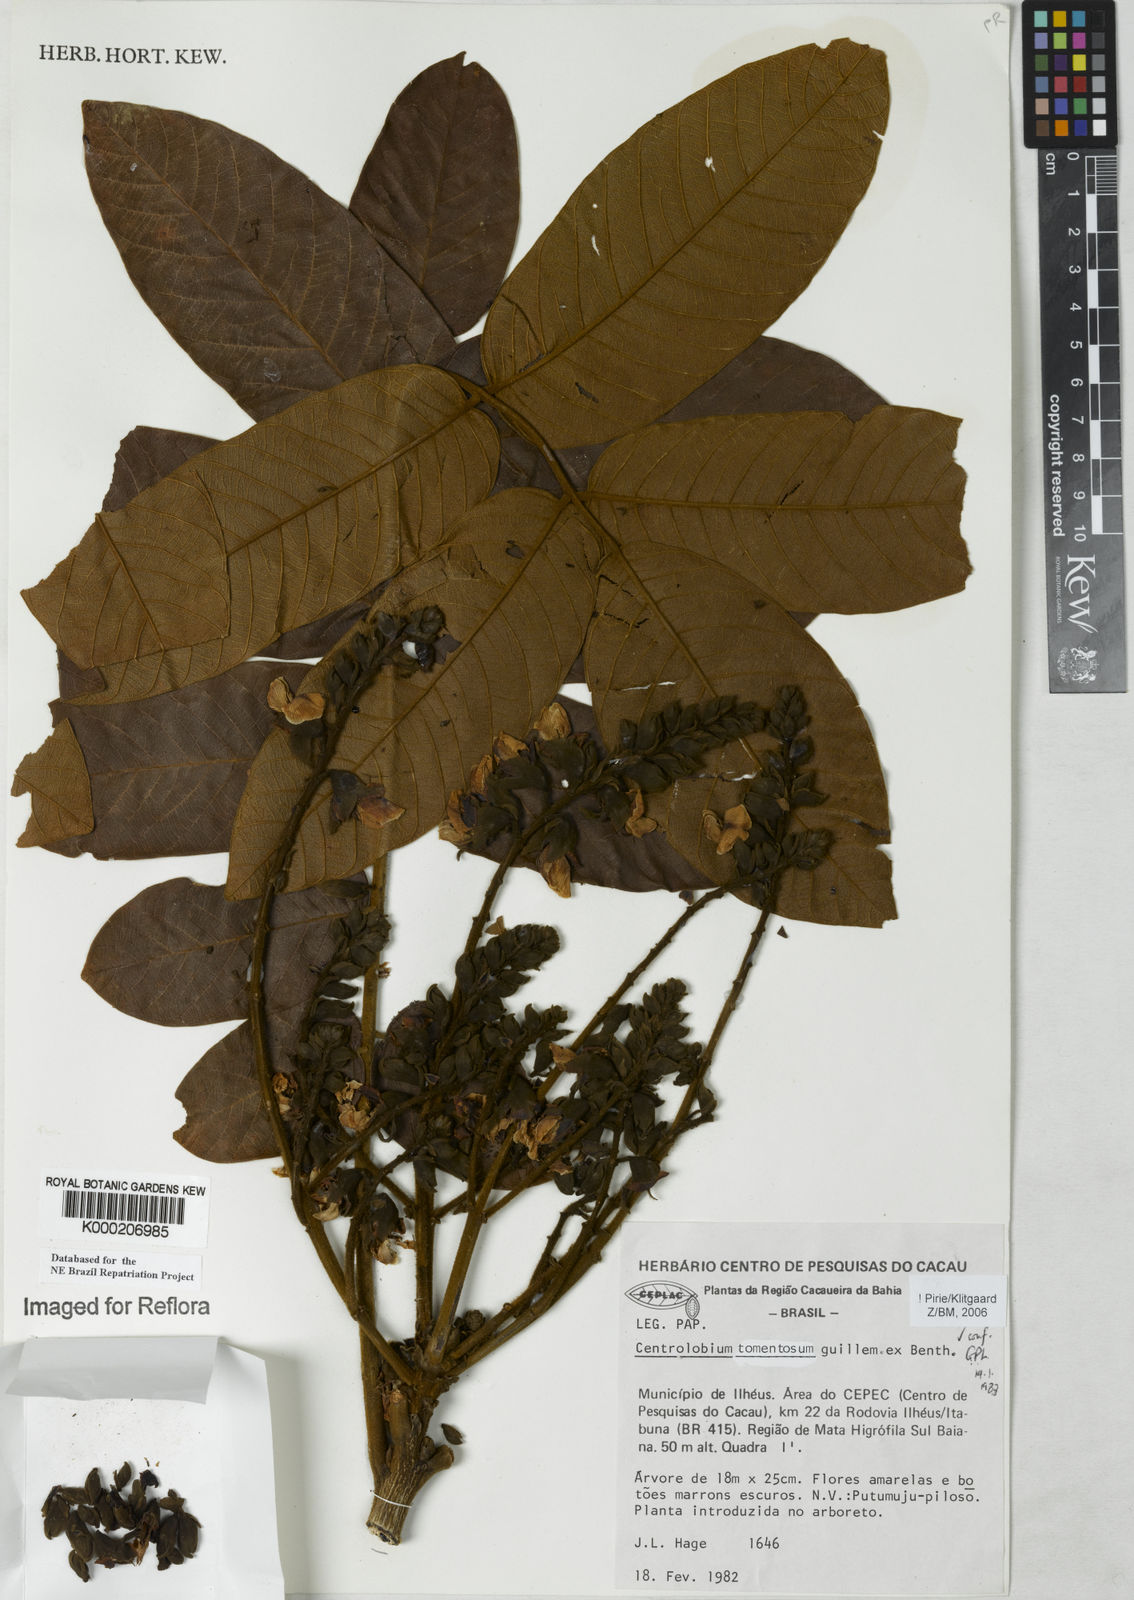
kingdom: Plantae
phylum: Tracheophyta
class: Magnoliopsida
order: Fabales
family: Fabaceae
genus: Centrolobium
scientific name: Centrolobium tomentosum
